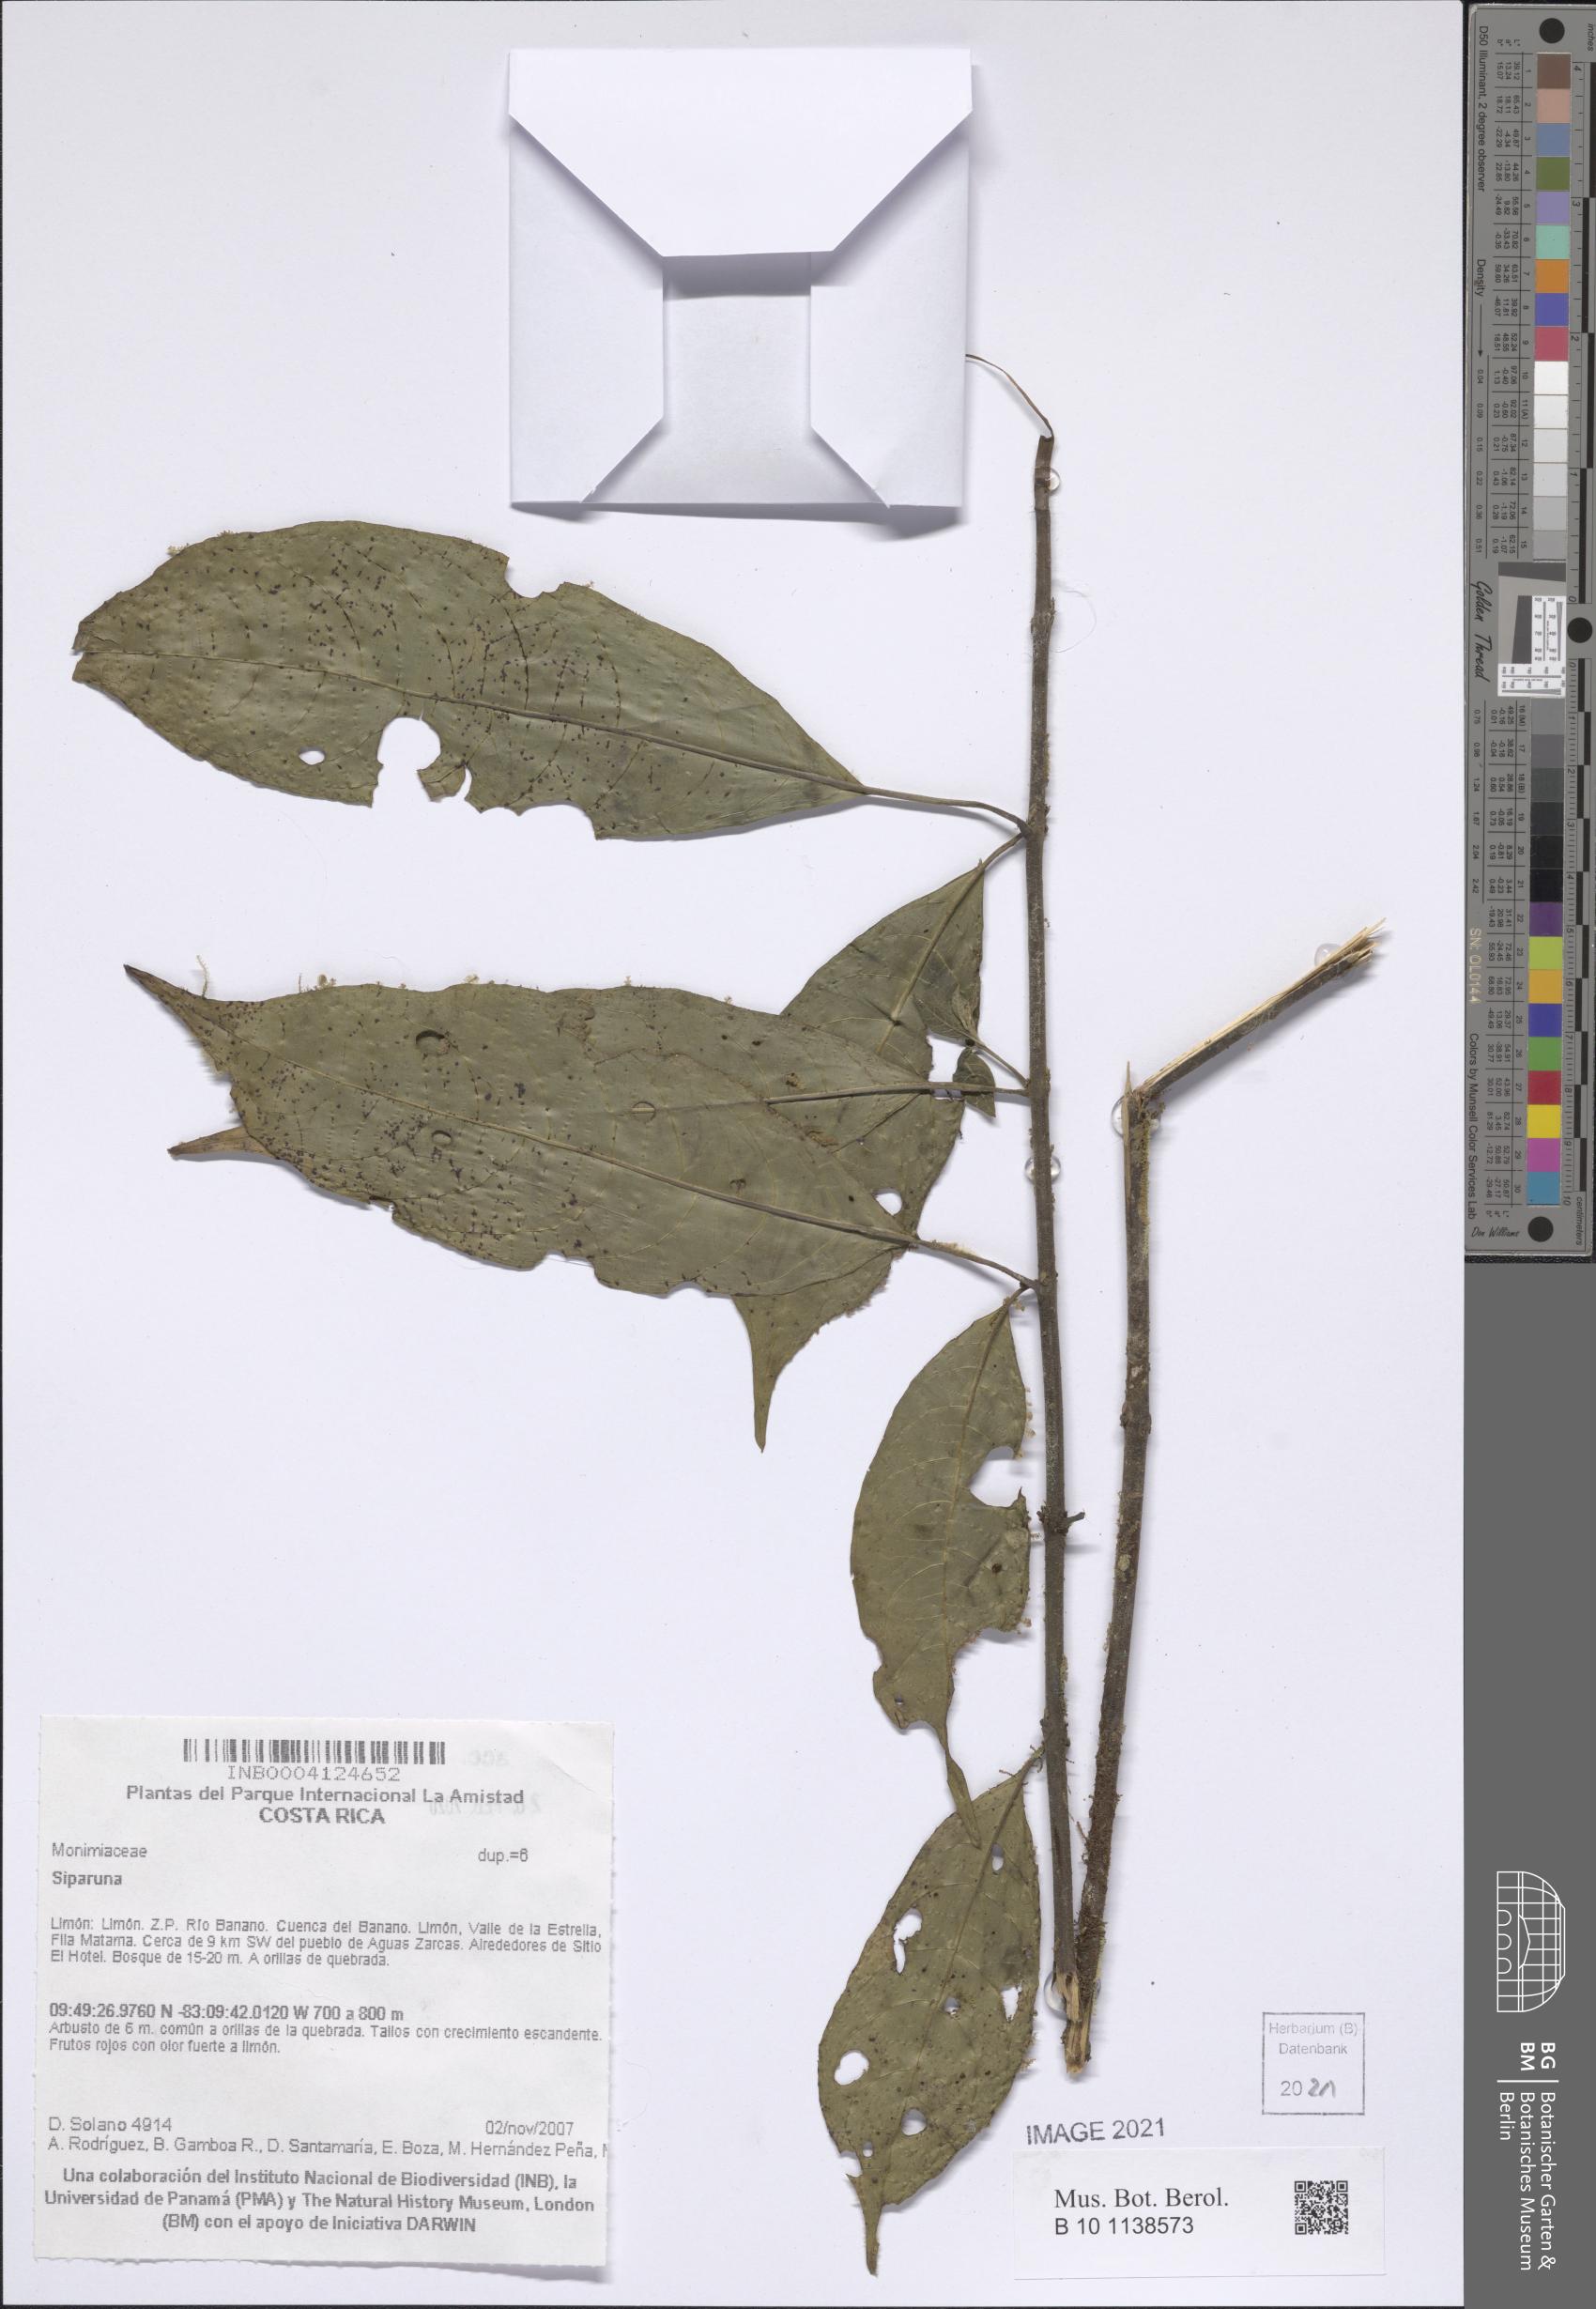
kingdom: Plantae
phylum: Tracheophyta
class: Magnoliopsida
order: Laurales
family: Siparunaceae
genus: Siparuna
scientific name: Siparuna
